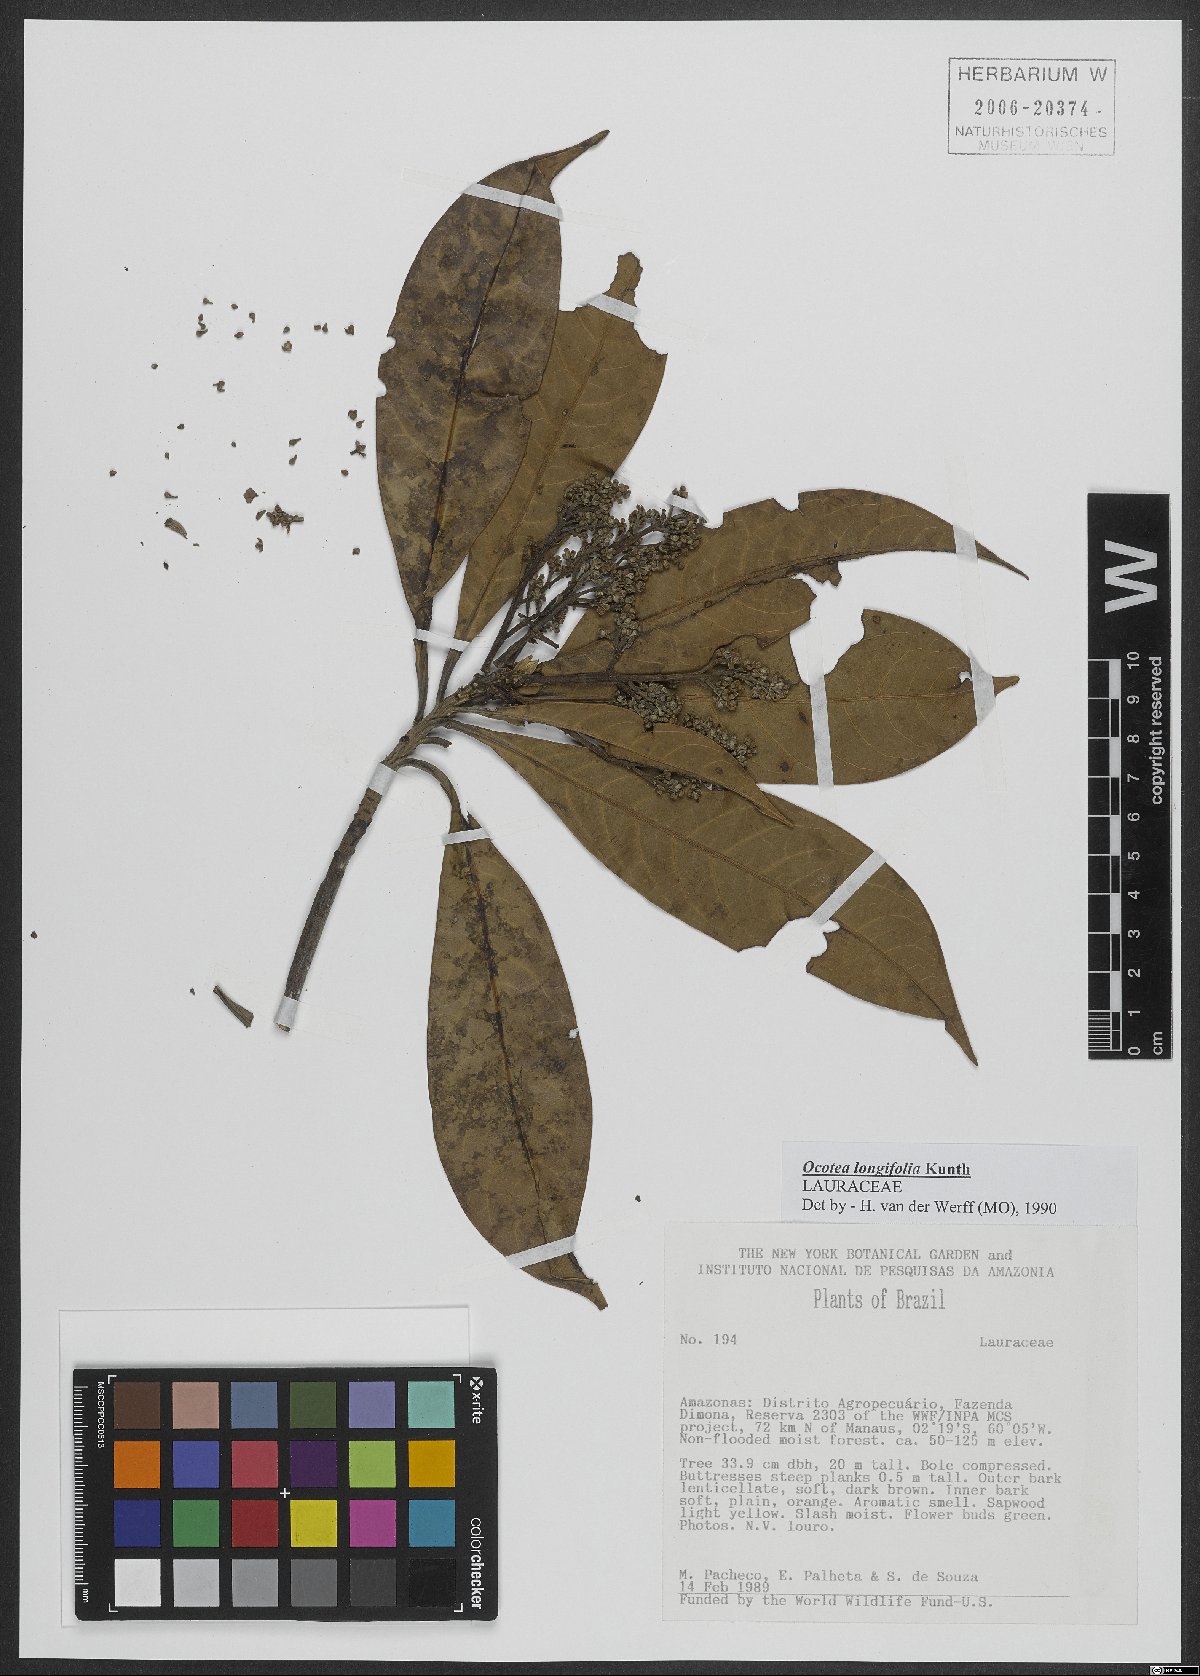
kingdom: Plantae
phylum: Tracheophyta
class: Magnoliopsida
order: Laurales
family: Lauraceae
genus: Mespilodaphne
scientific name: Mespilodaphne opifera
